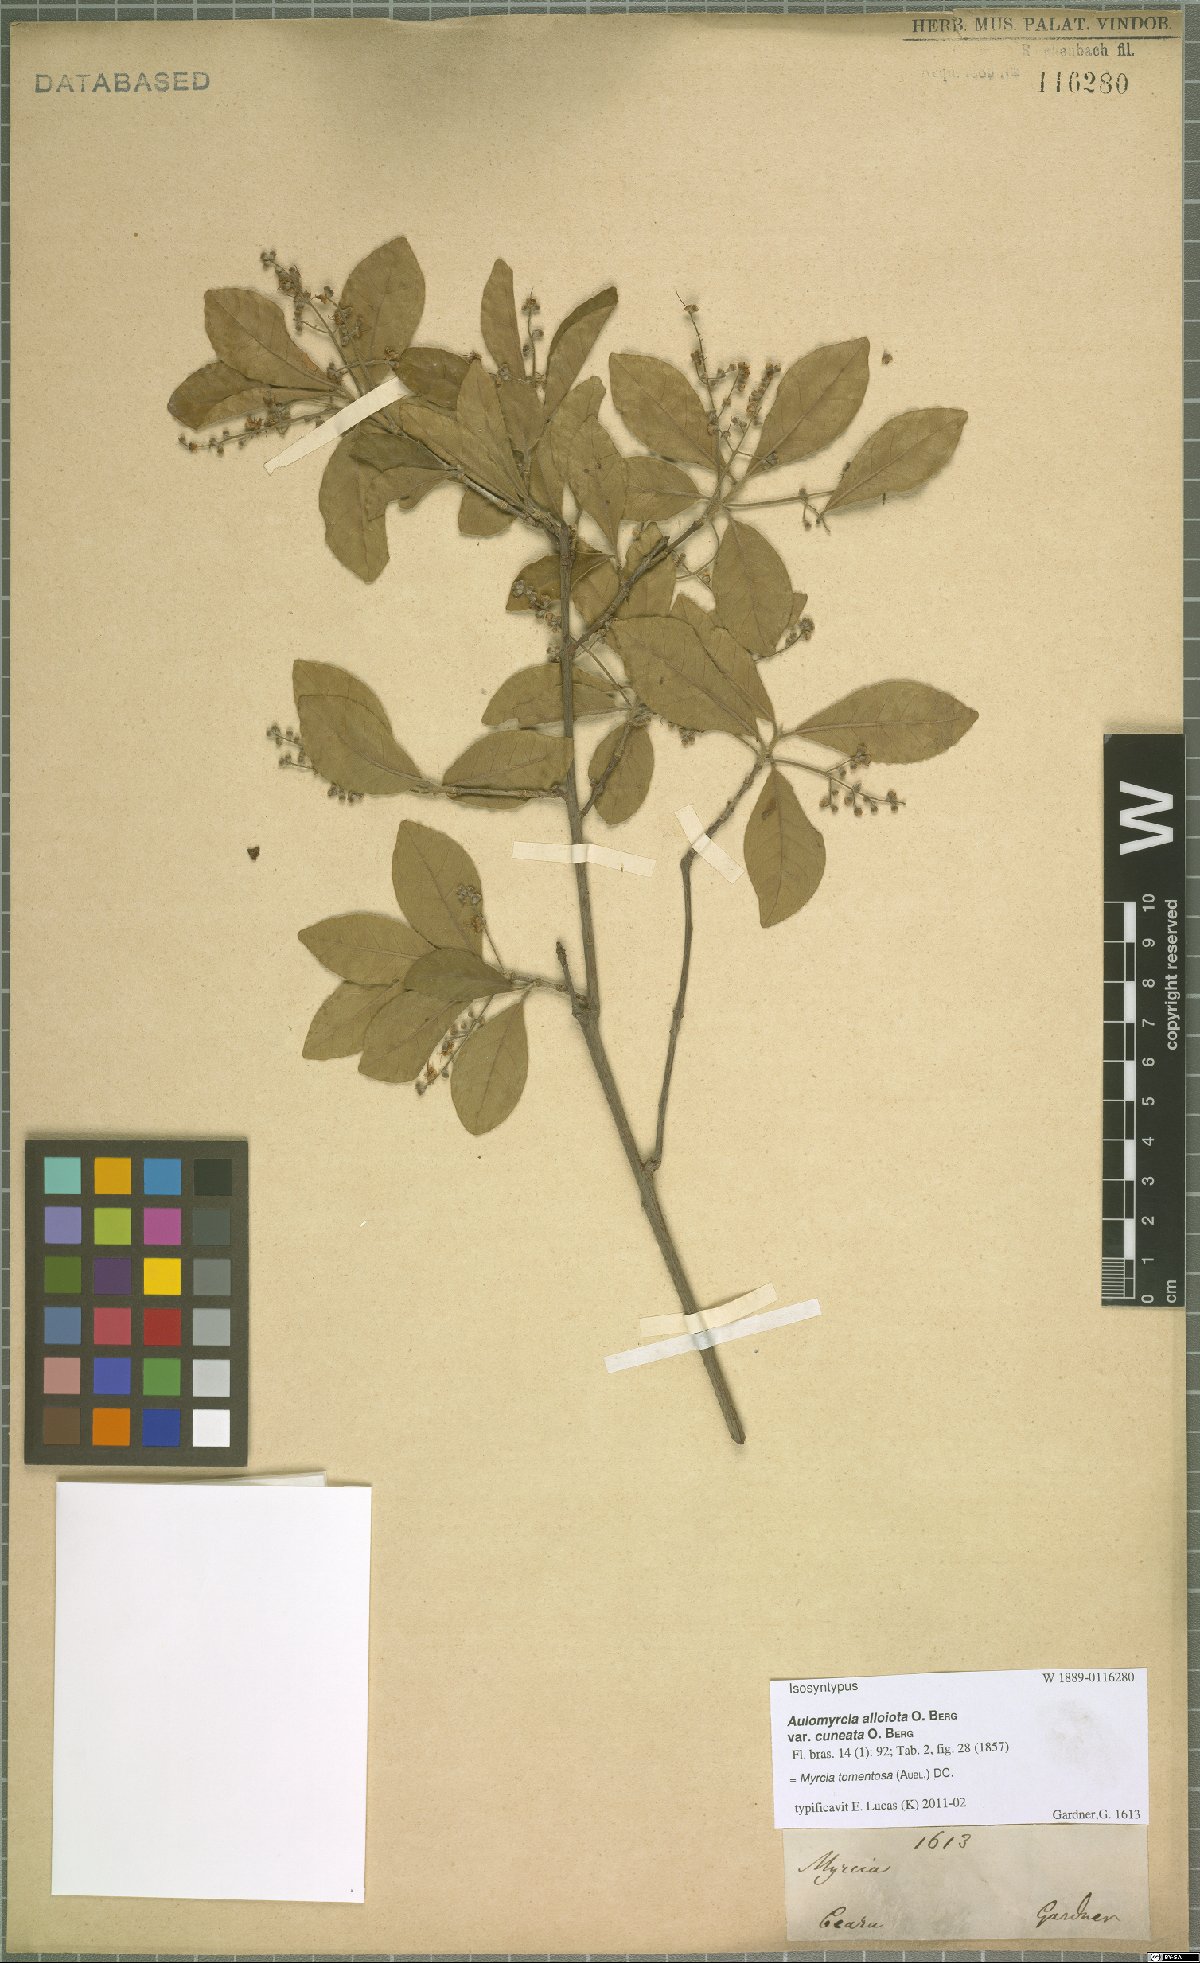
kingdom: Plantae
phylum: Tracheophyta
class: Magnoliopsida
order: Myrtales
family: Myrtaceae
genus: Myrcia
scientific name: Myrcia tomentosa
